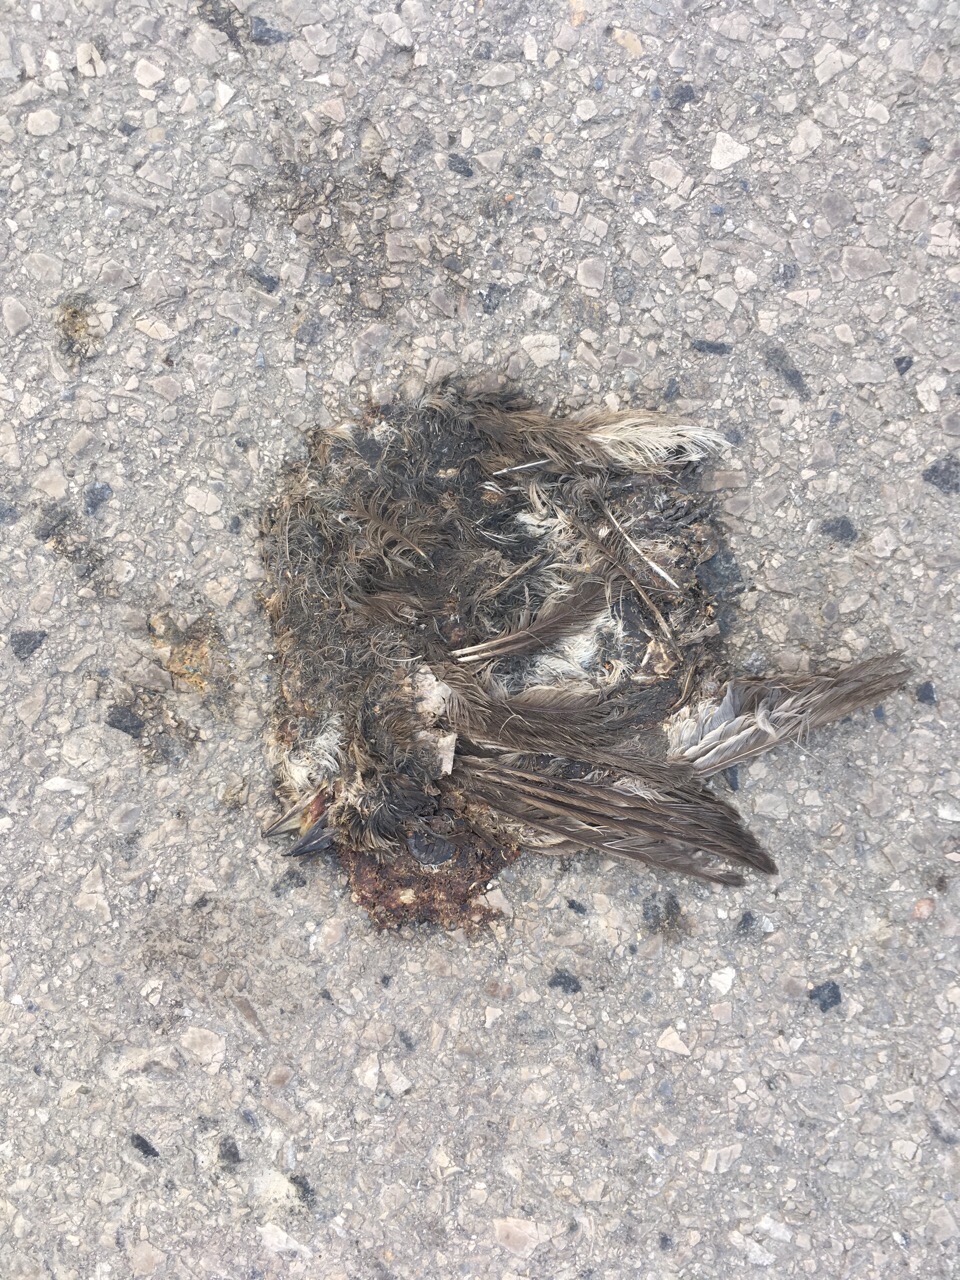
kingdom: Animalia
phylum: Chordata
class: Aves
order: Passeriformes
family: Muscicapidae
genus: Phoenicurus
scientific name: Phoenicurus ochruros
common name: Black redstart
